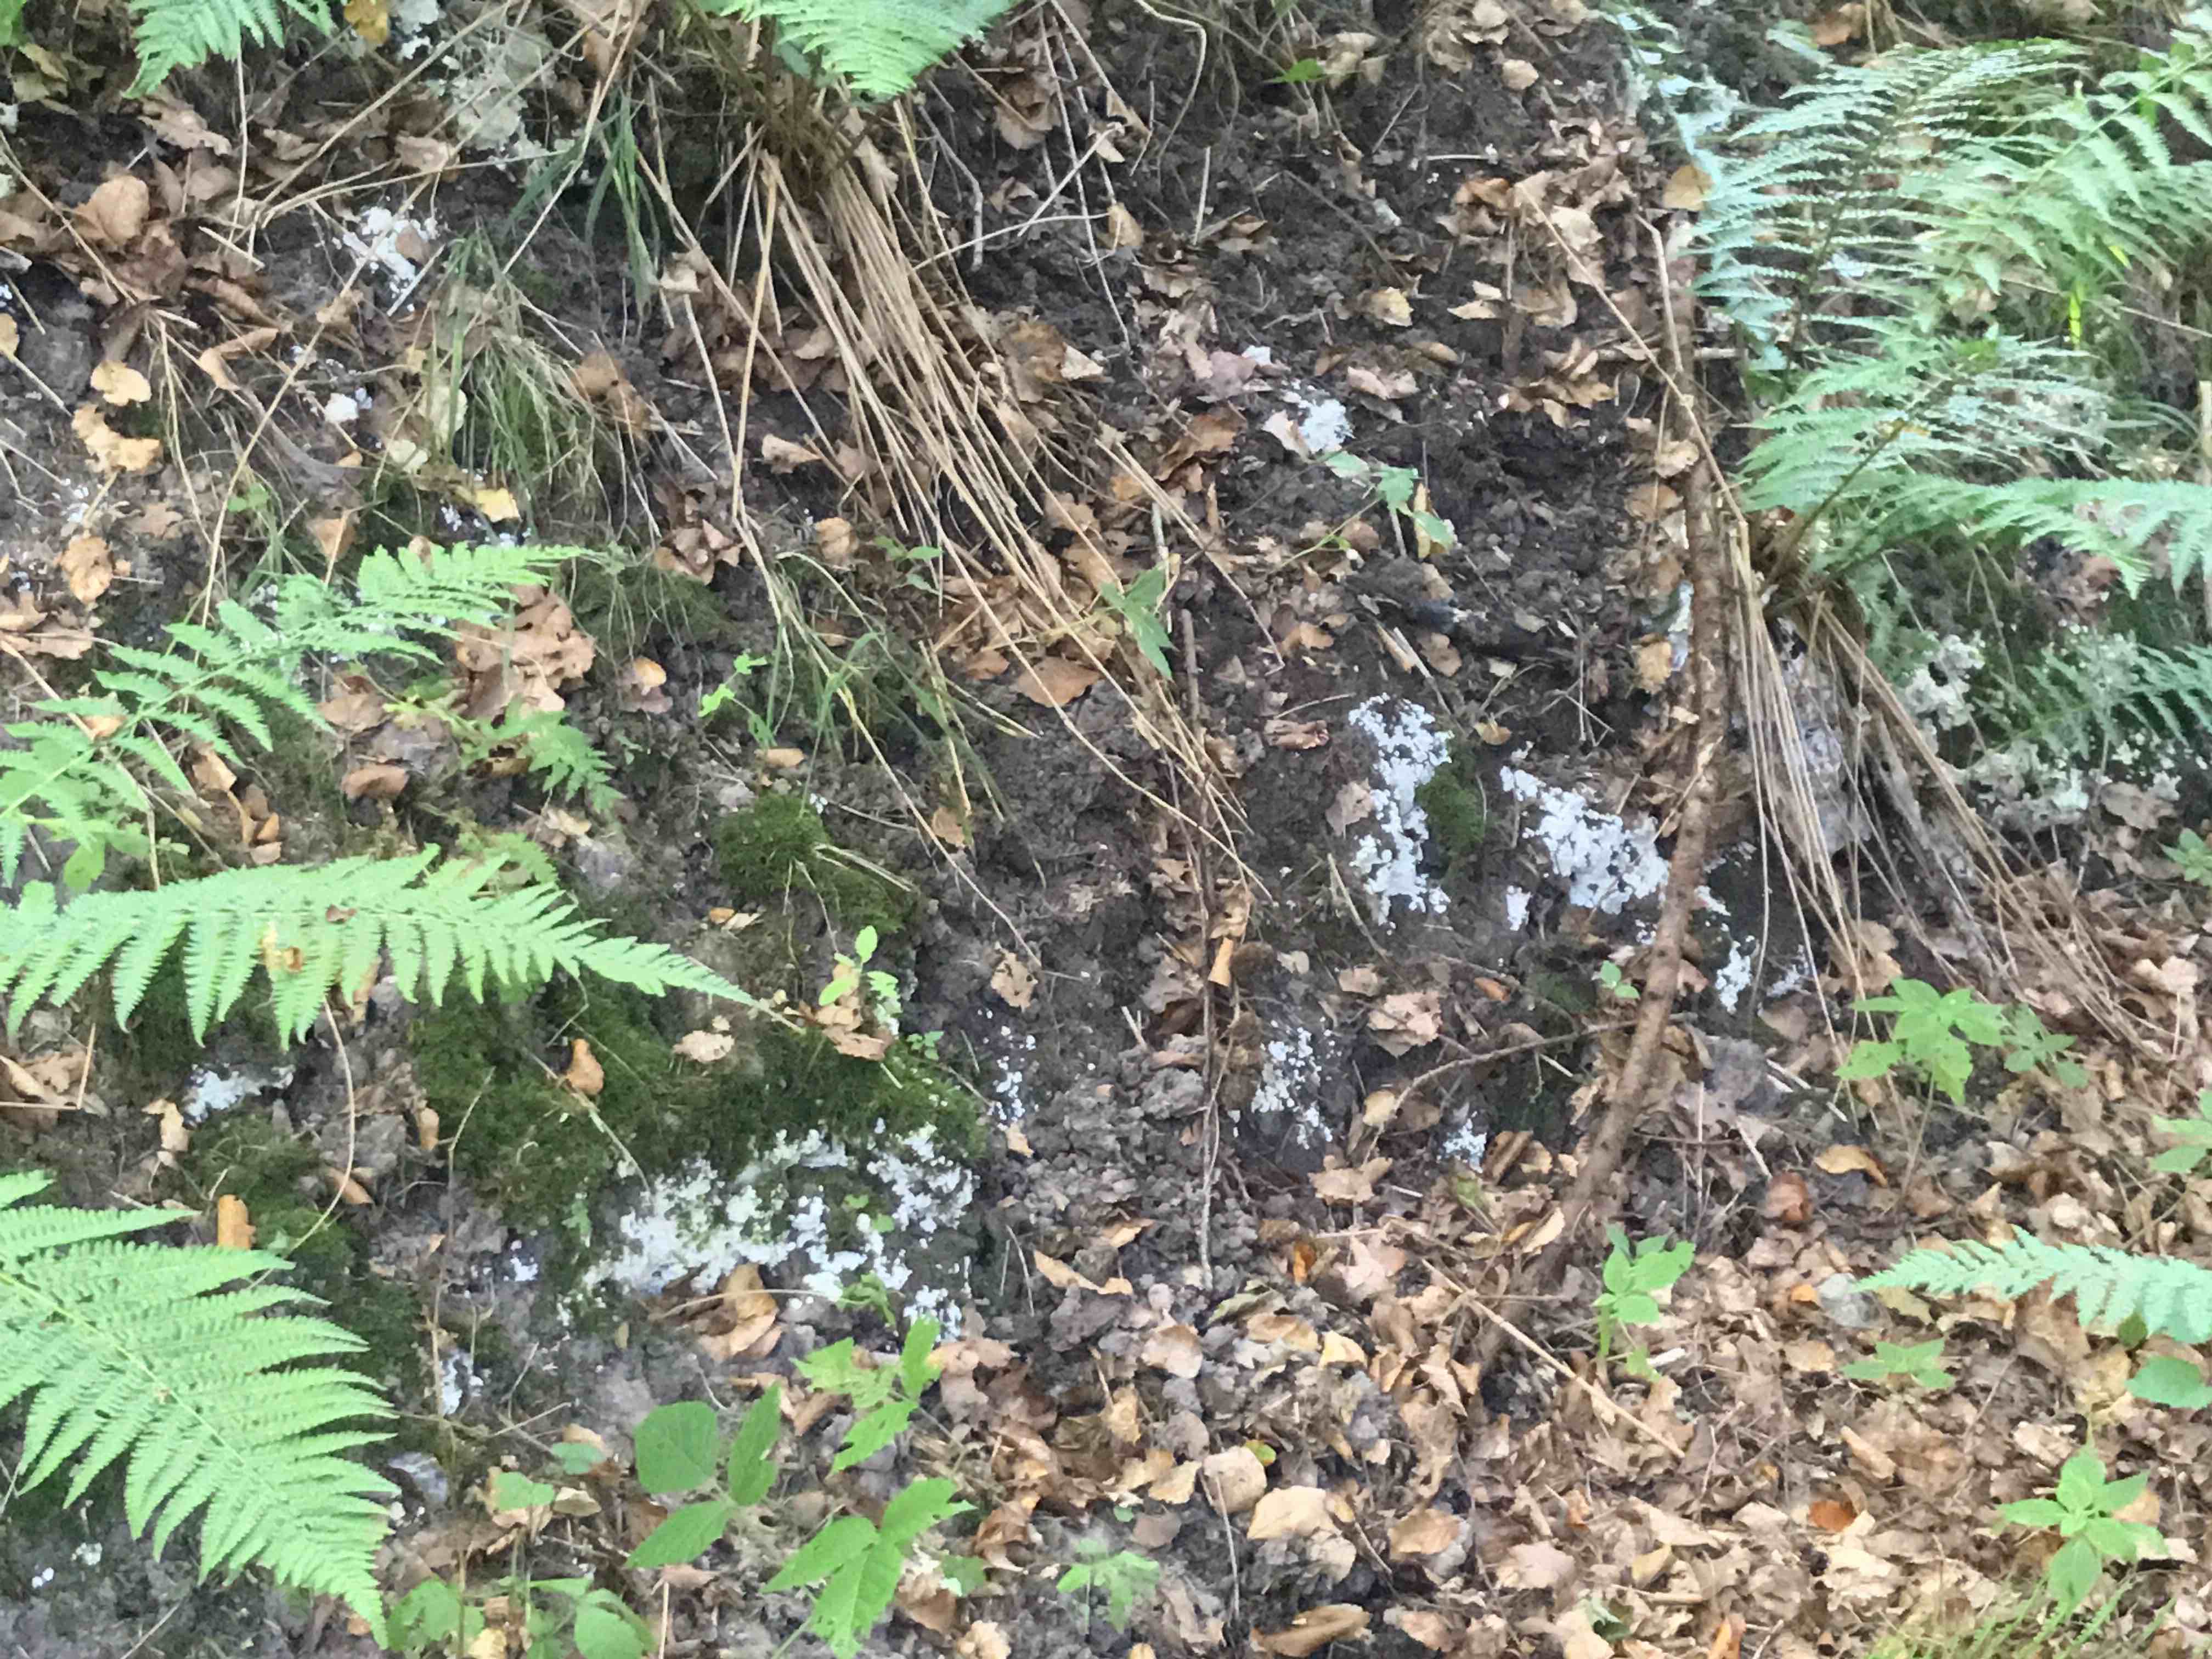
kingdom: Fungi
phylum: Basidiomycota
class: Agaricomycetes
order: Polyporales
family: Meruliaceae
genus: Physisporinus
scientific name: Physisporinus vitreus
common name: mastesvamp
